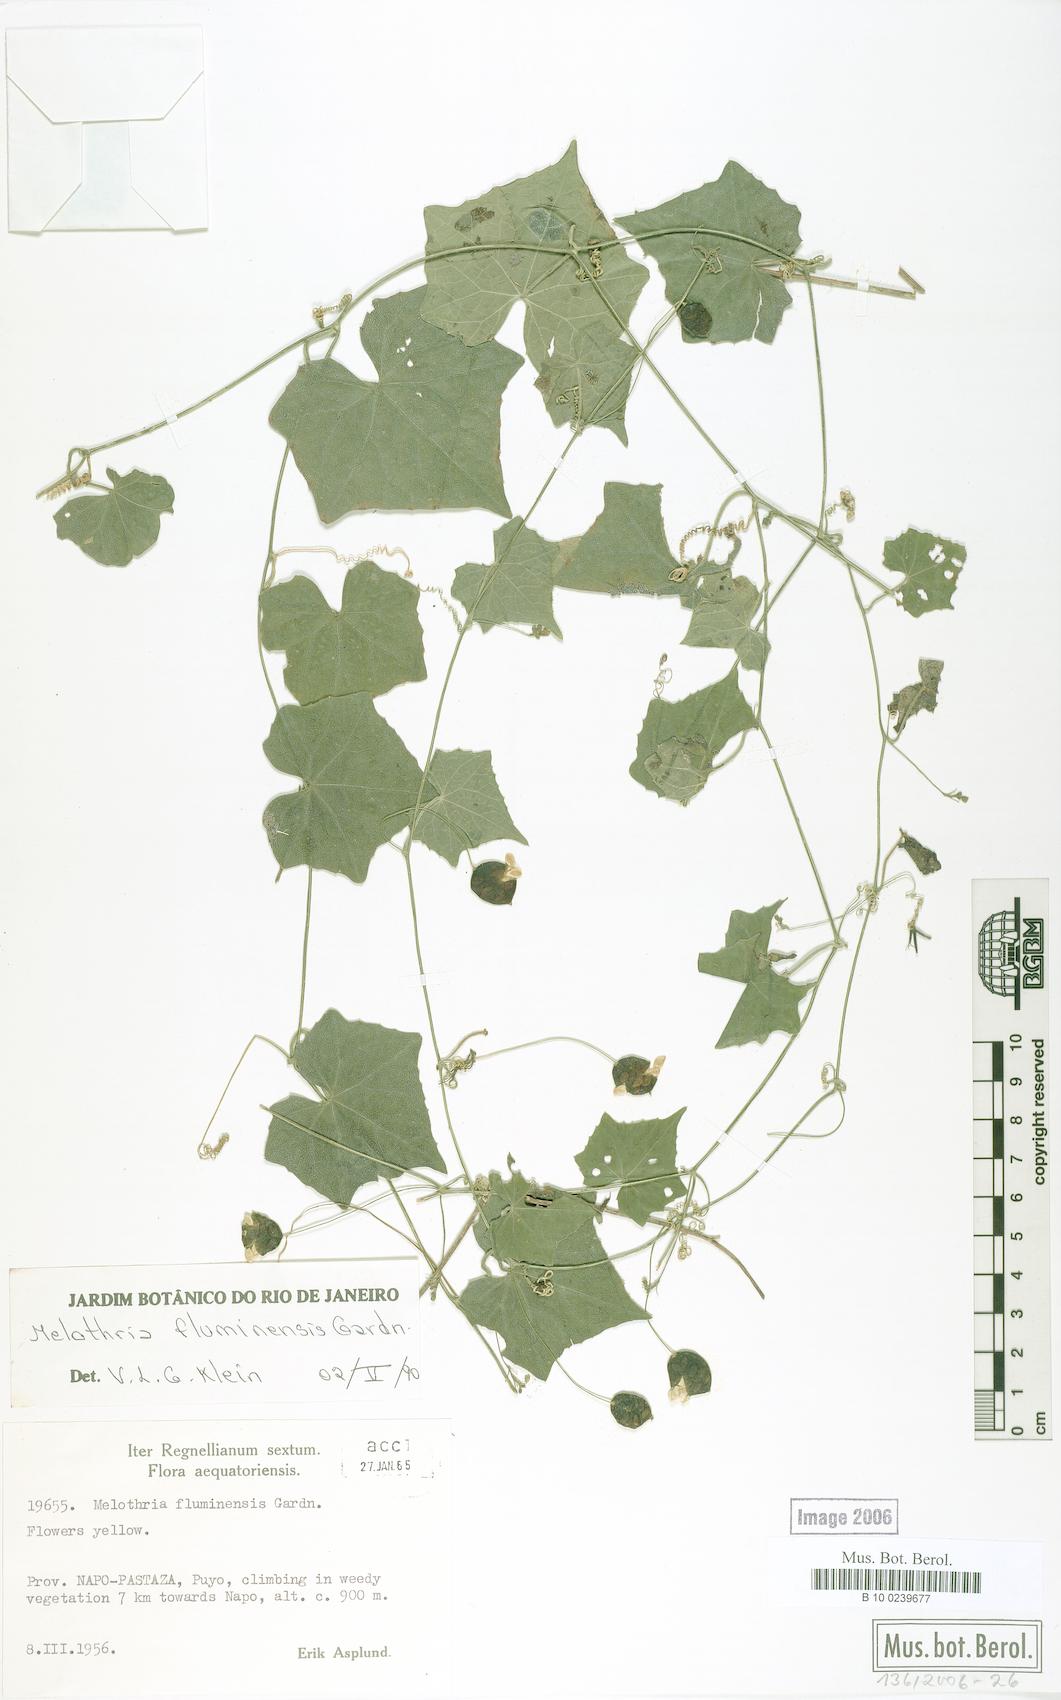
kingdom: Plantae
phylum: Tracheophyta
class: Magnoliopsida
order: Cucurbitales
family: Cucurbitaceae
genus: Melothria
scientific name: Melothria fluminensis
